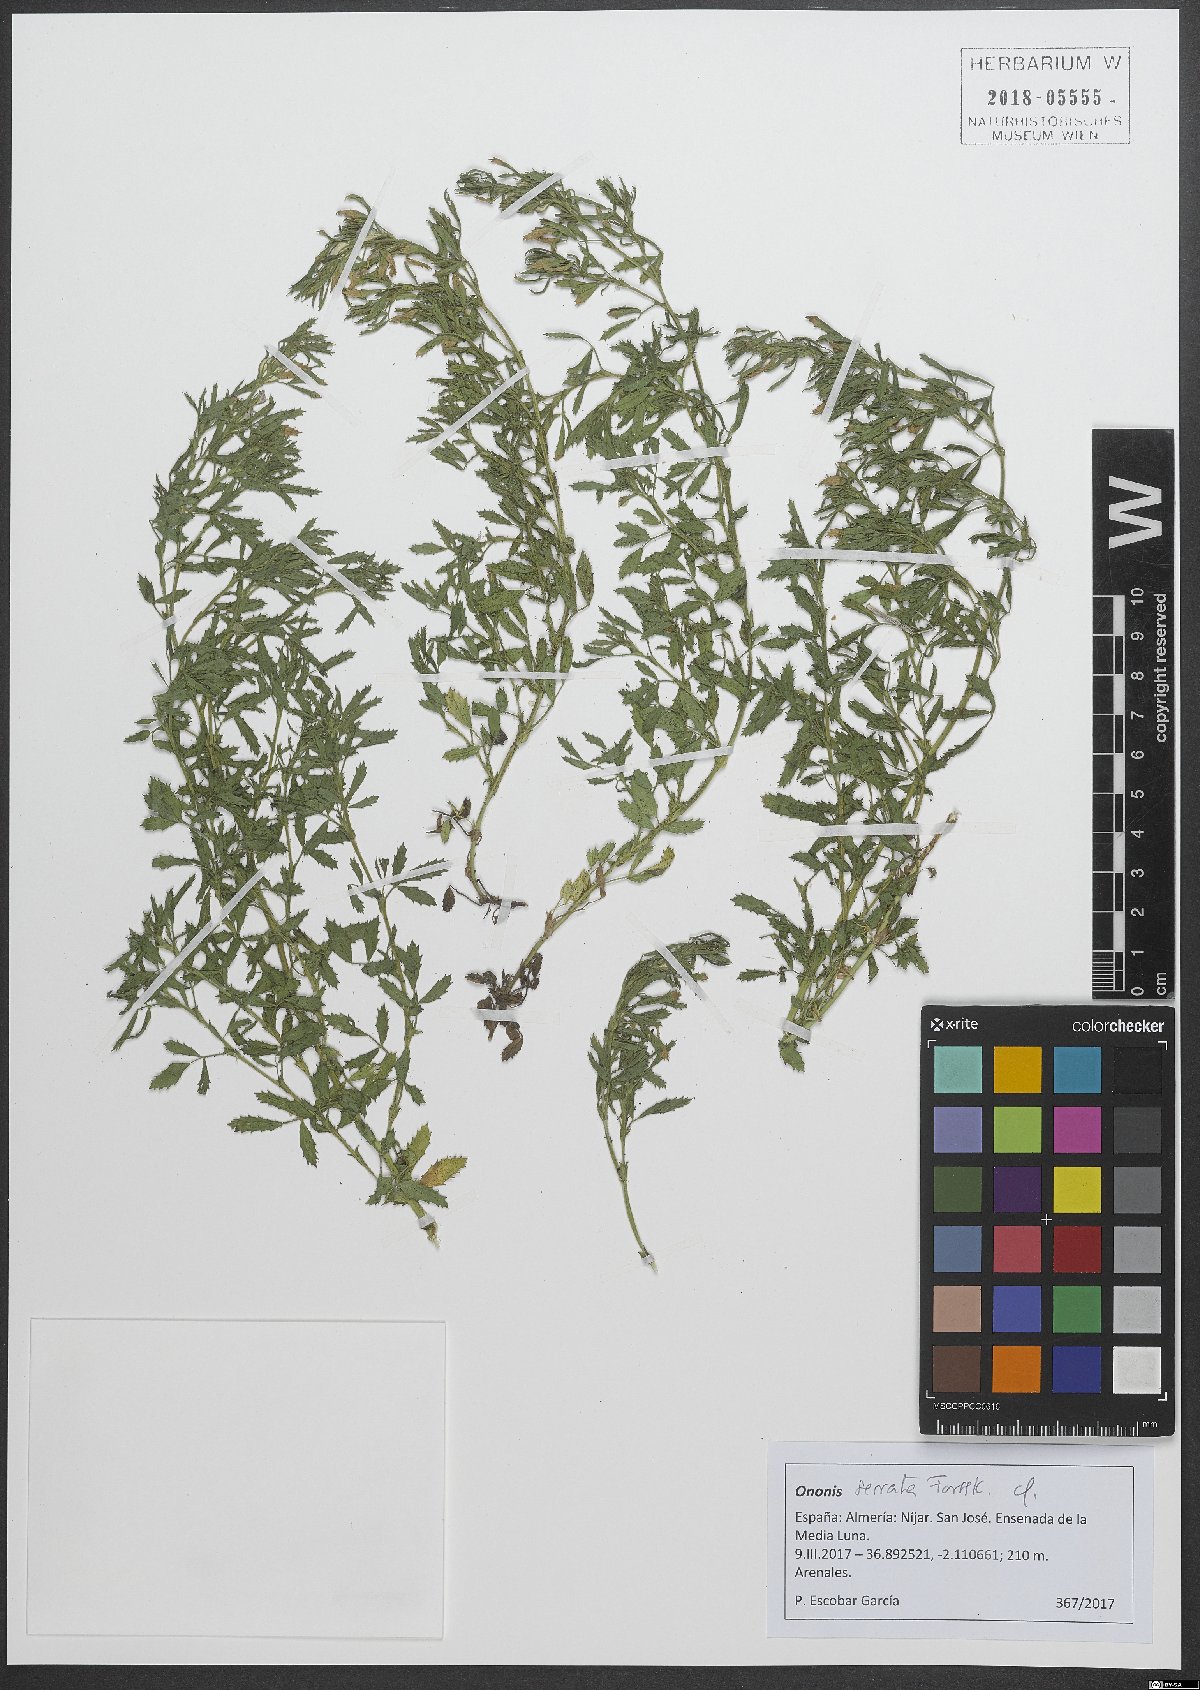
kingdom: Plantae
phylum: Tracheophyta
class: Magnoliopsida
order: Fabales
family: Fabaceae
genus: Ononis
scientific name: Ononis serrata
